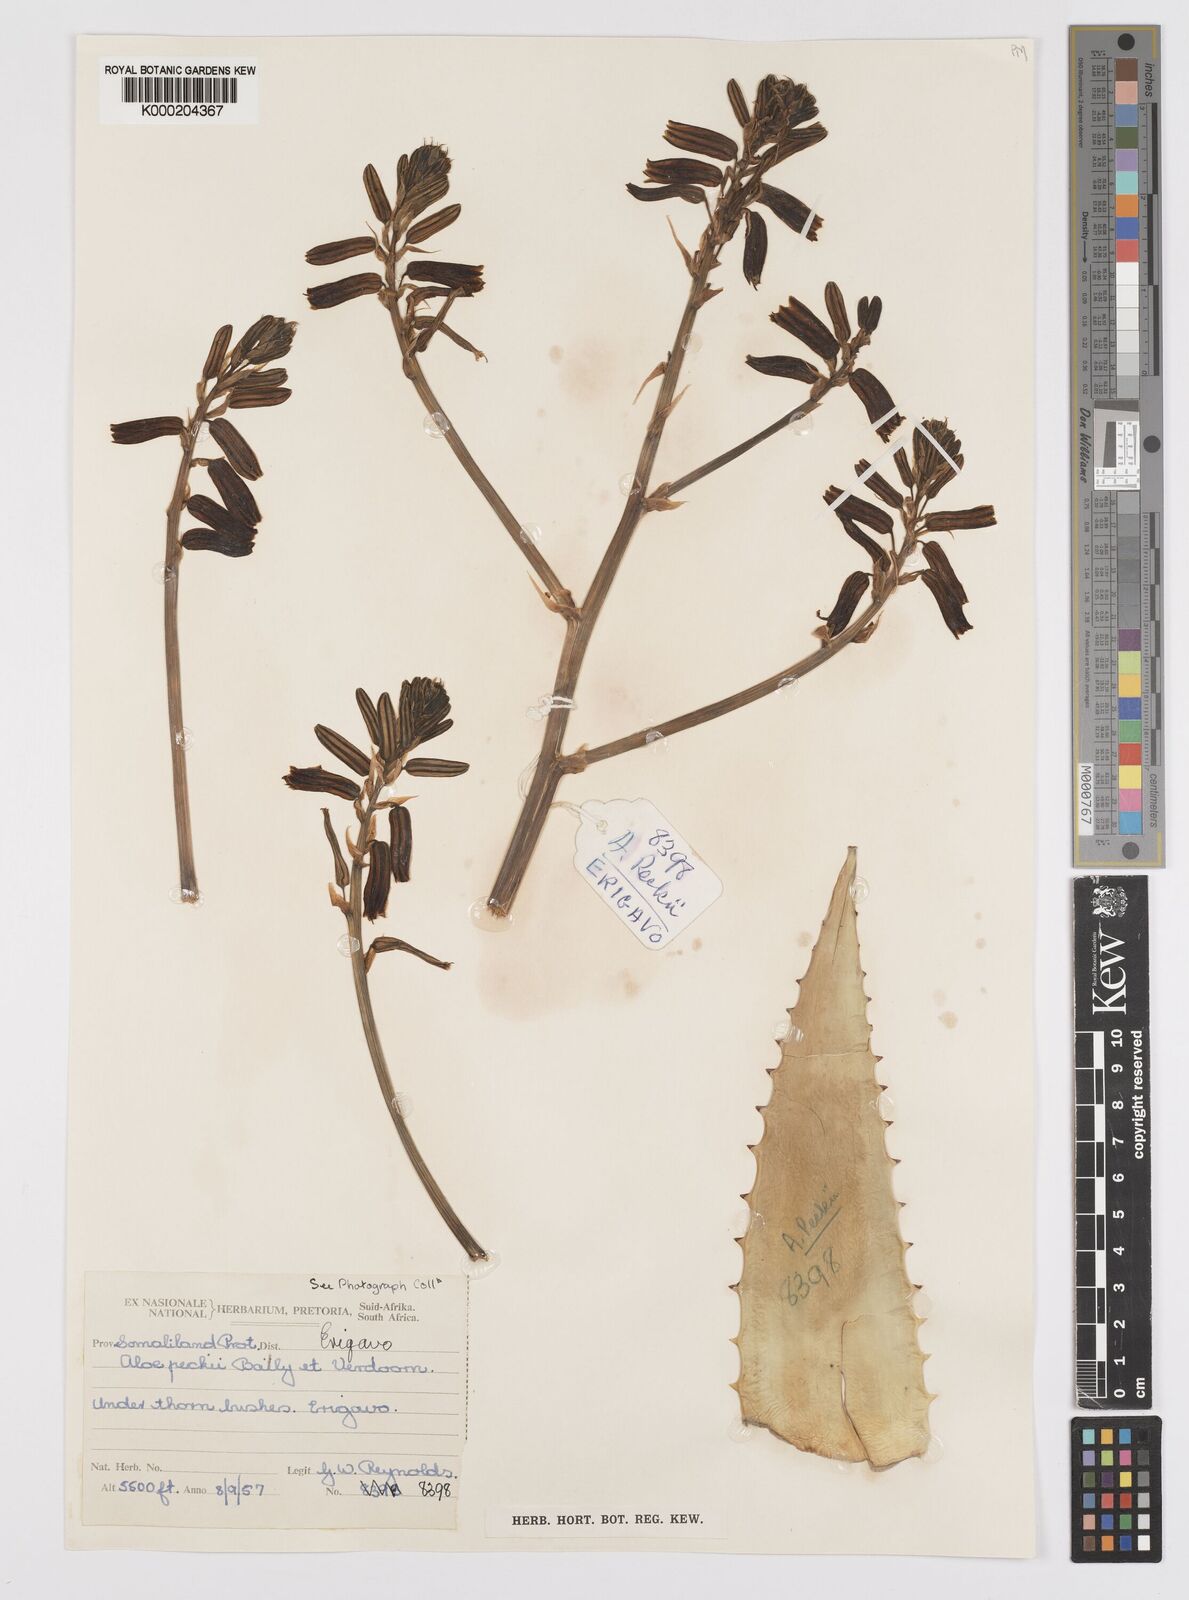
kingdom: Plantae
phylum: Tracheophyta
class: Liliopsida
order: Asparagales
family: Asphodelaceae
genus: Aloe
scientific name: Aloe peckii
